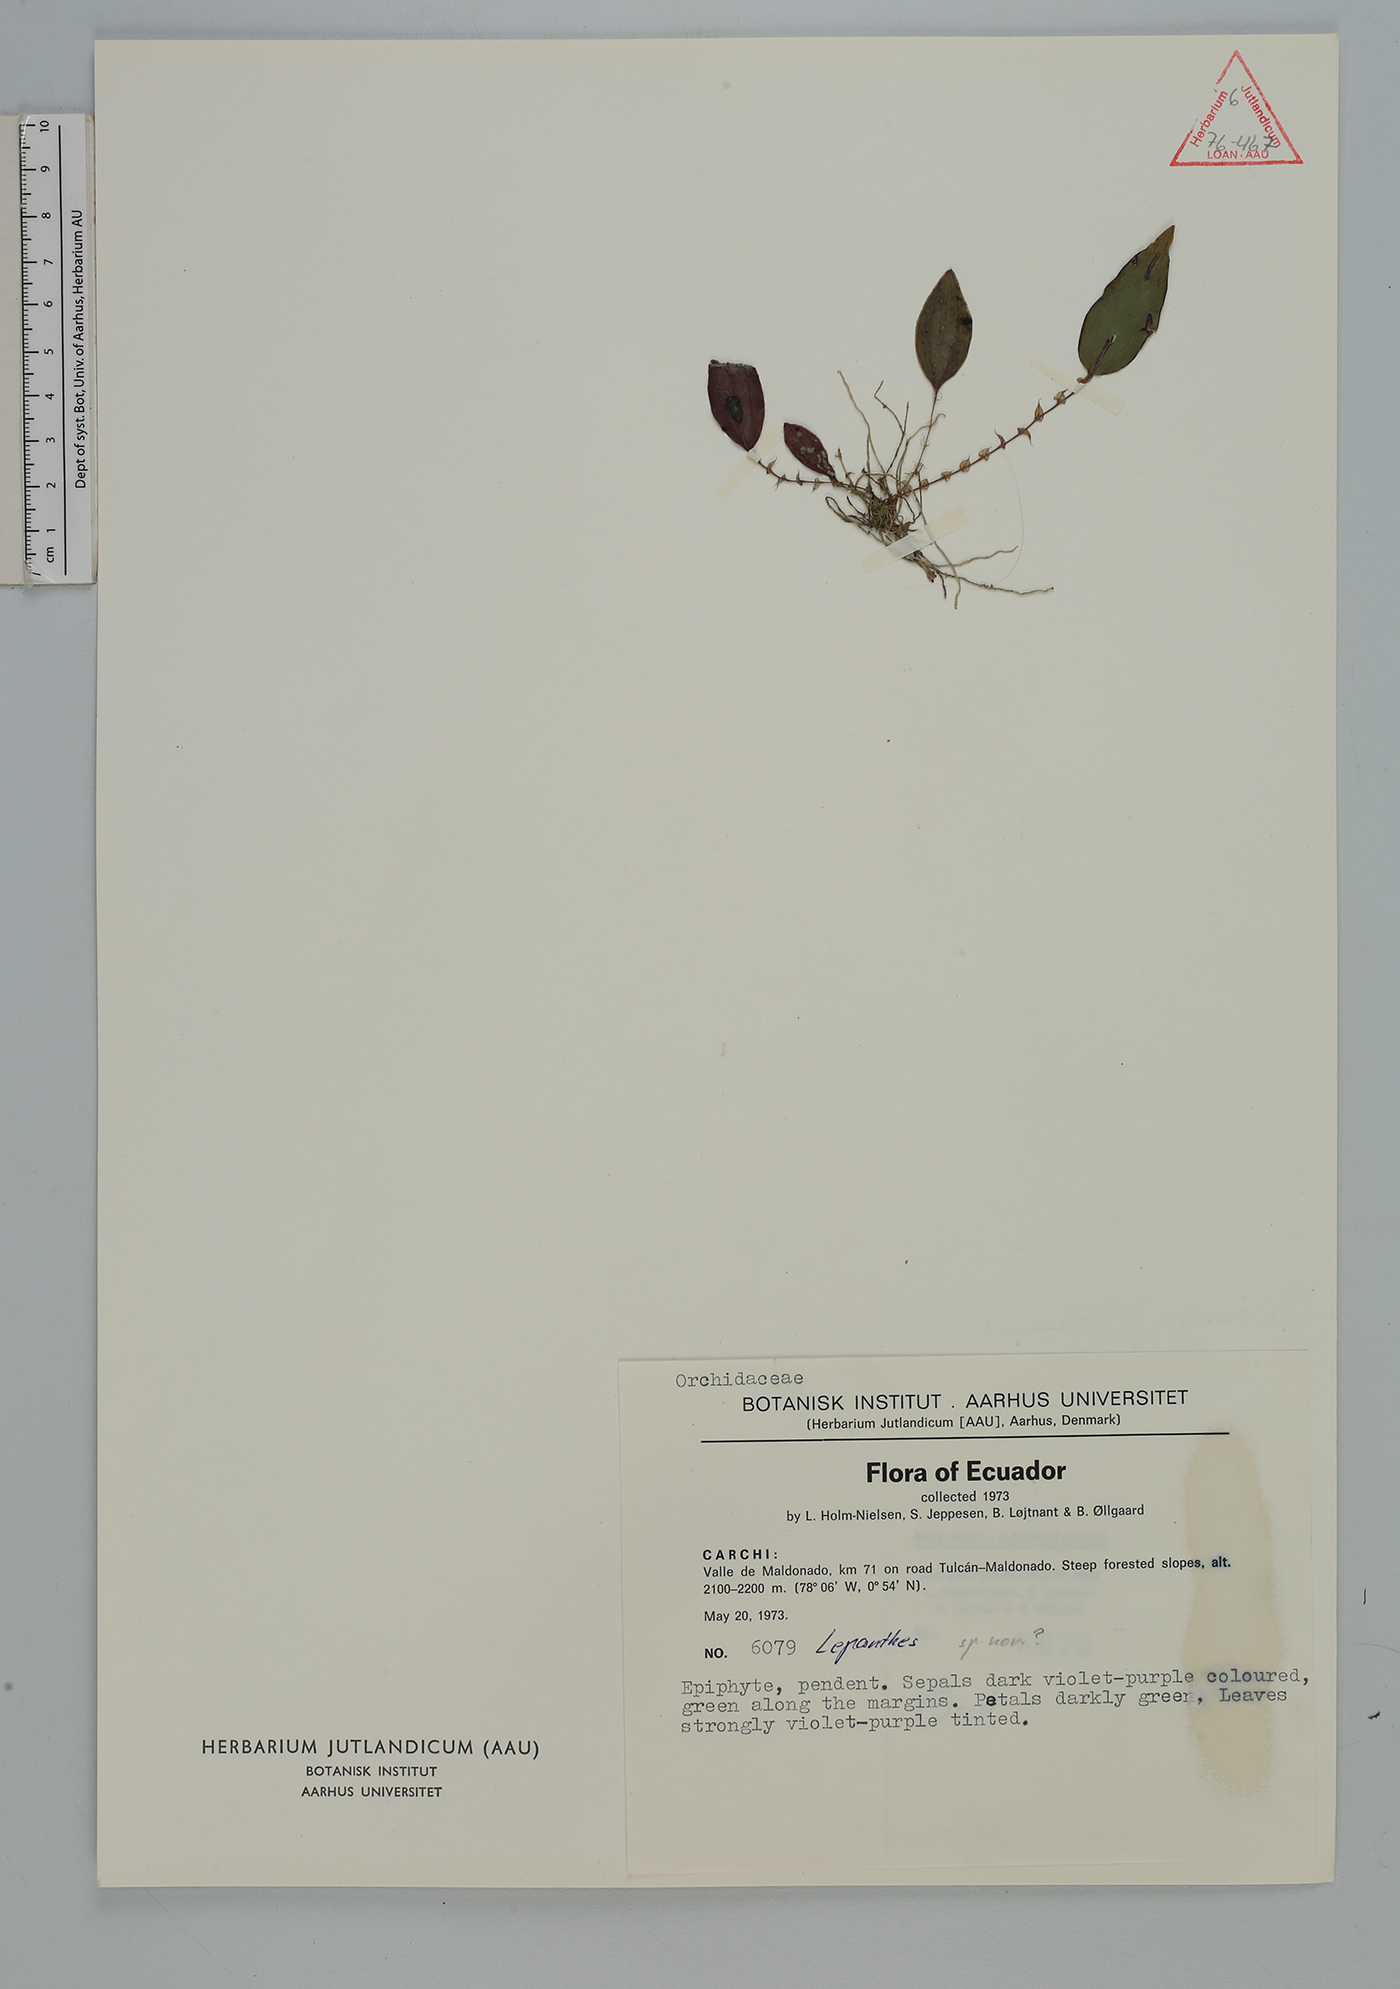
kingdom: Plantae
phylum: Tracheophyta
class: Liliopsida
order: Asparagales
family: Orchidaceae
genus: Lepanthes
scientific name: Lepanthes
